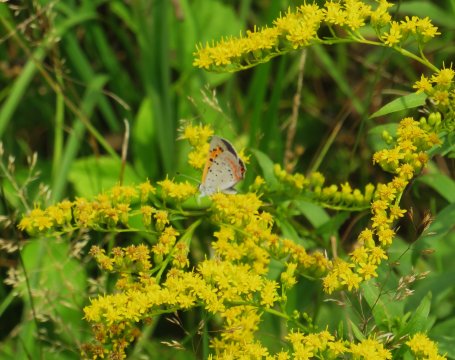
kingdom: Animalia
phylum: Arthropoda
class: Insecta
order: Lepidoptera
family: Lycaenidae
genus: Lycaena
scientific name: Lycaena phlaeas
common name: American Copper
